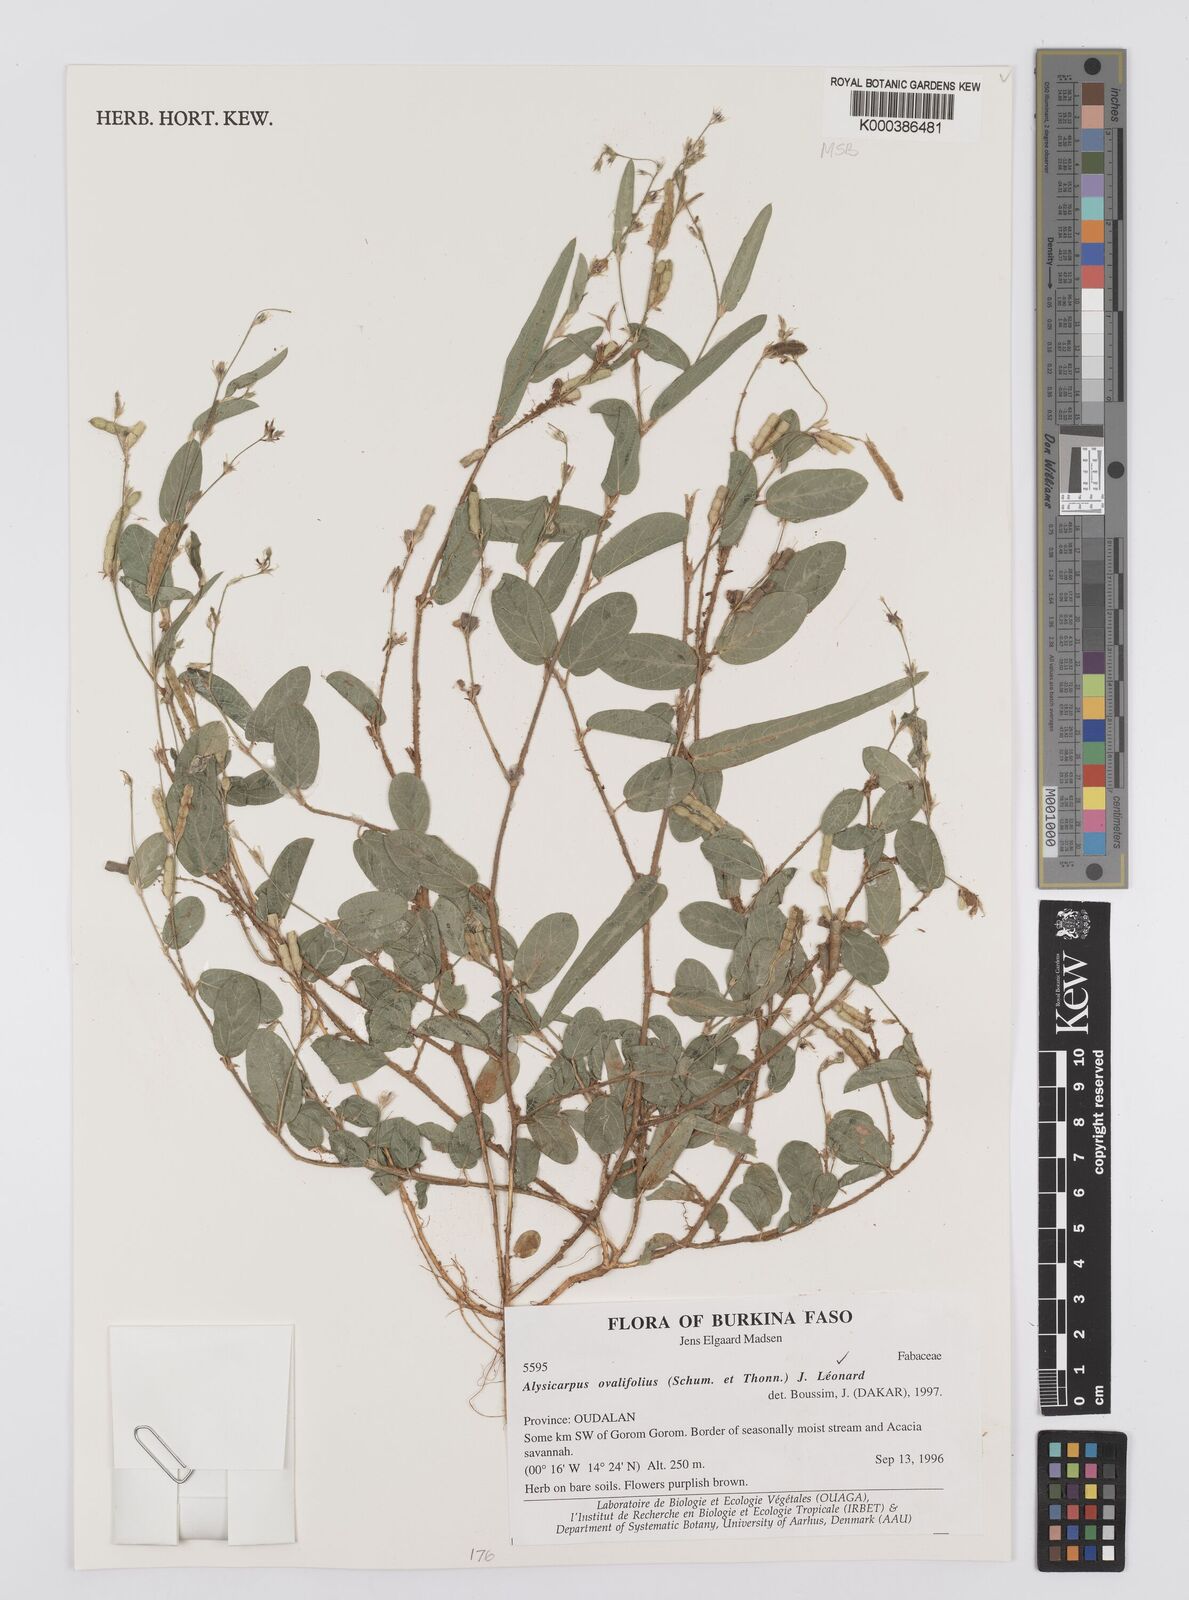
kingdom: Plantae
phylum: Tracheophyta
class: Magnoliopsida
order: Fabales
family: Fabaceae
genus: Alysicarpus
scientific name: Alysicarpus ovalifolius
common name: Alyce clover
